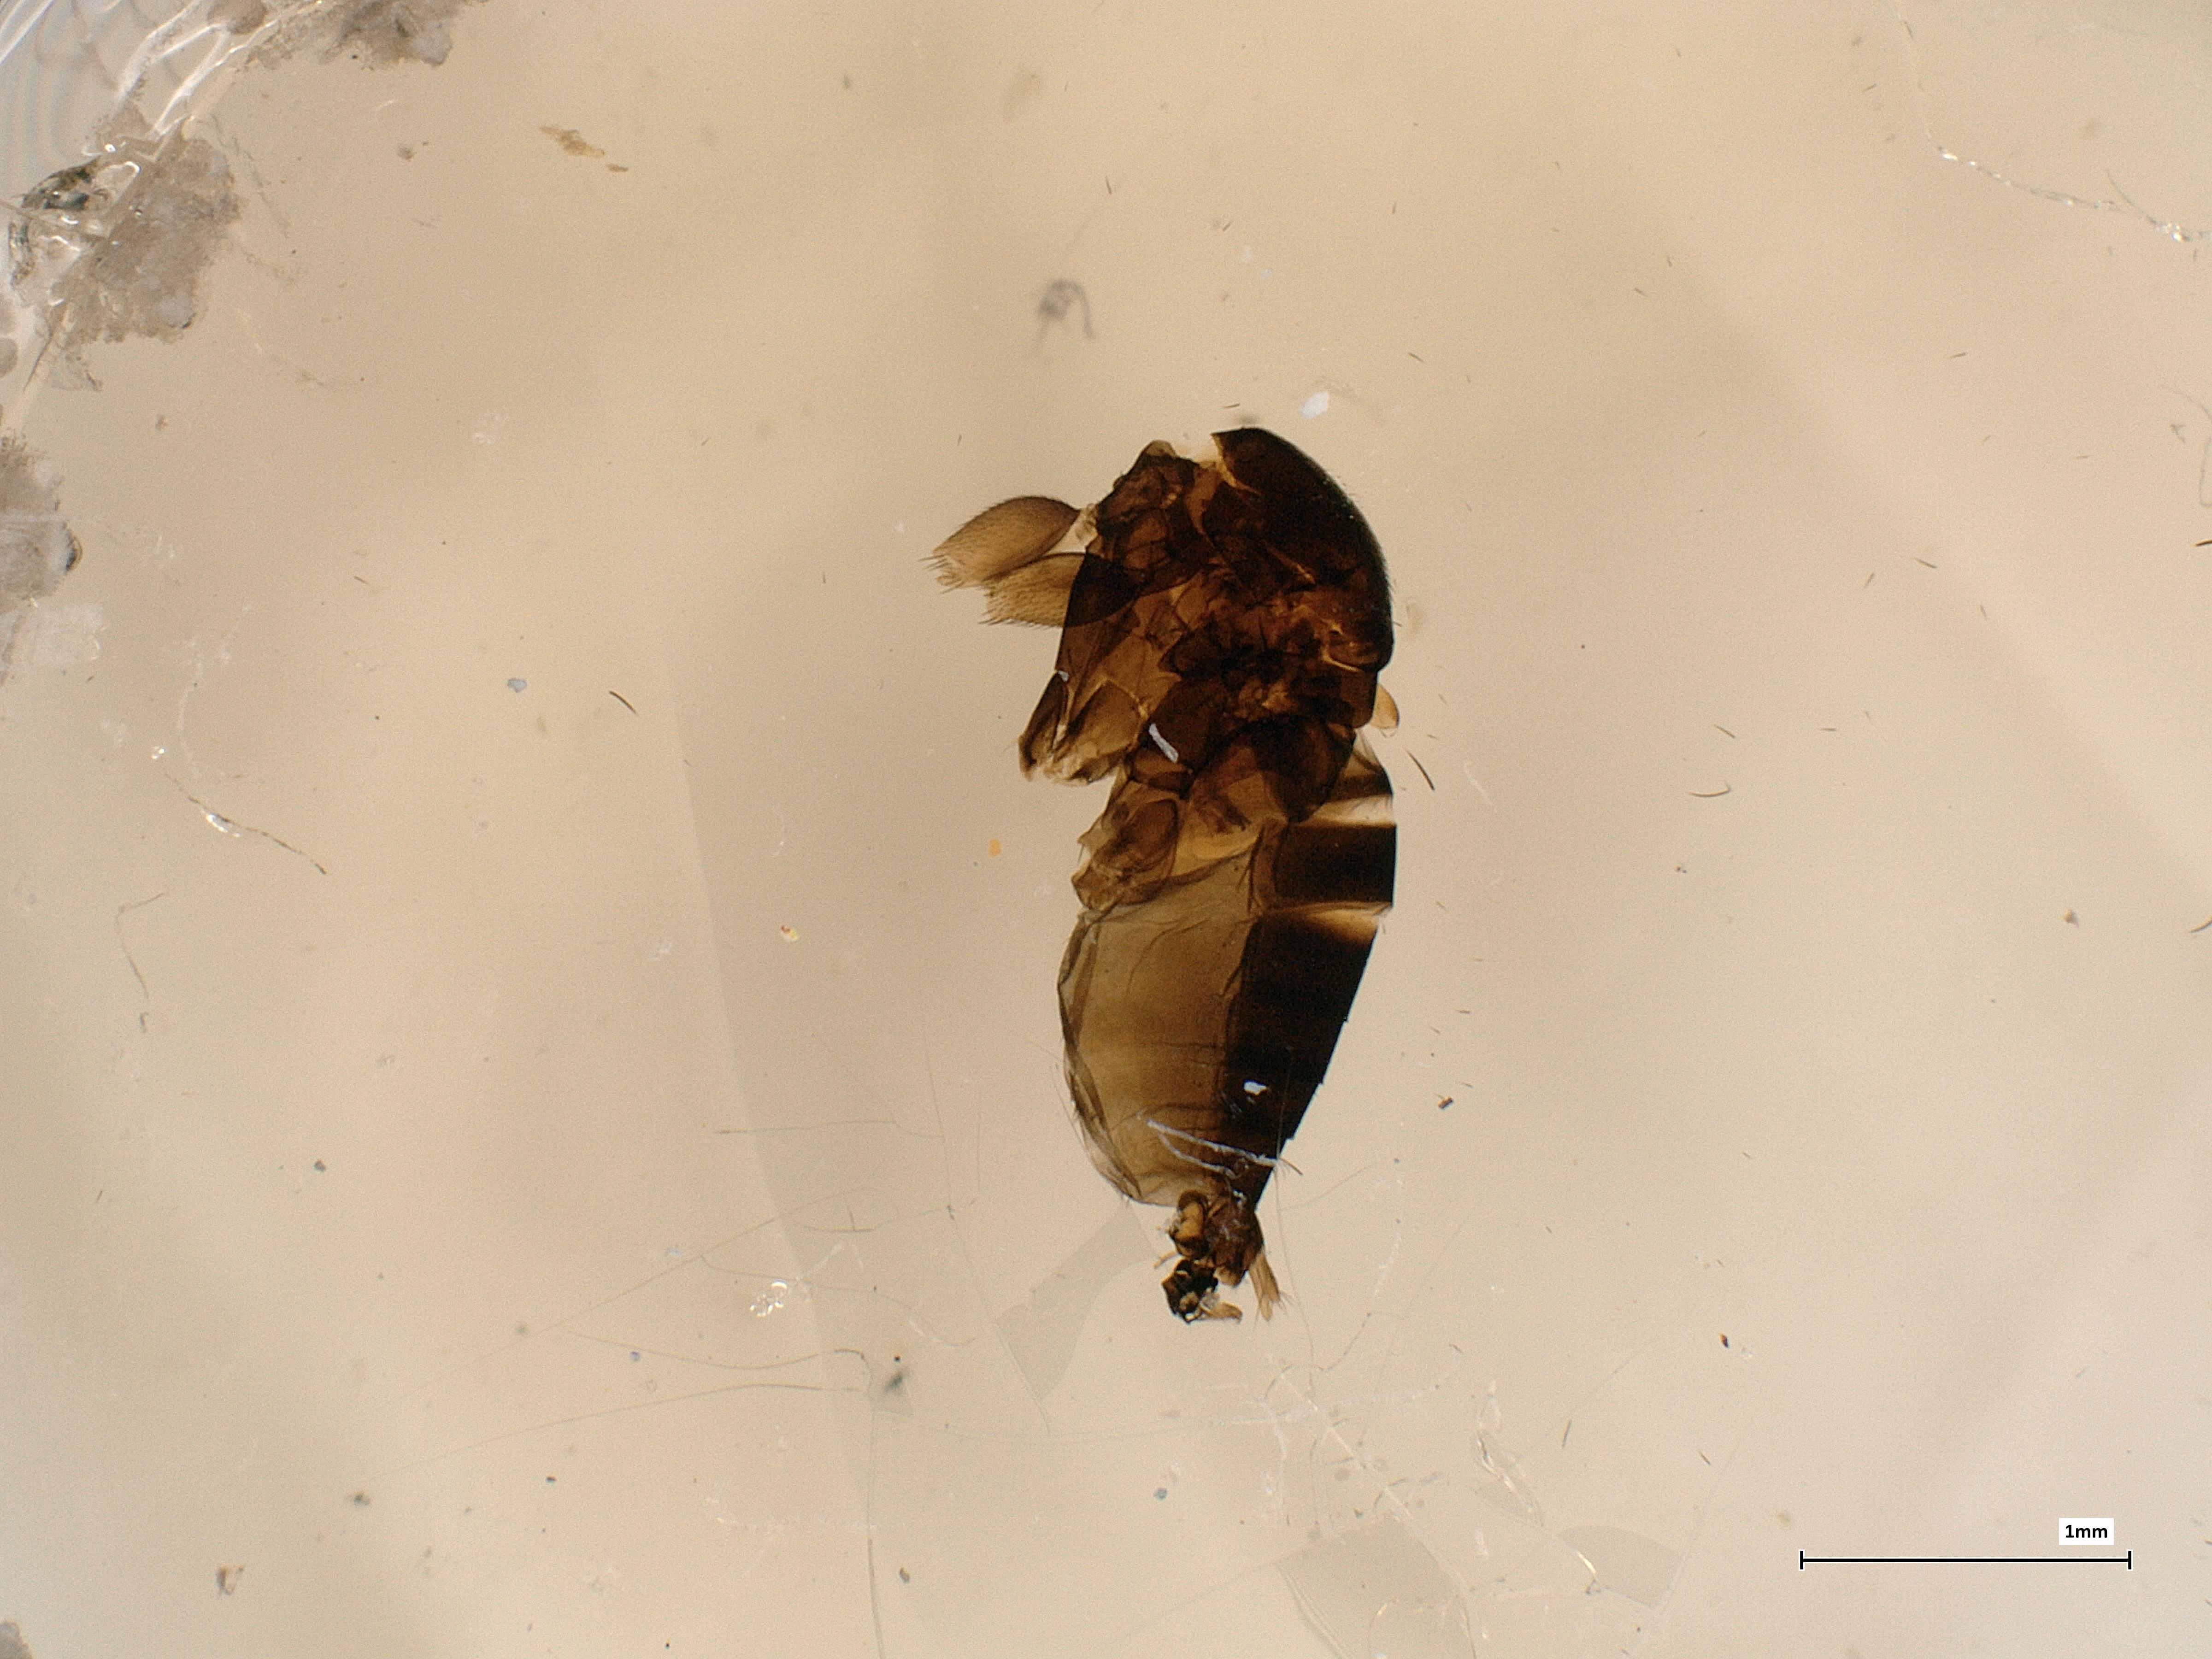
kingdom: Animalia
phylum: Arthropoda
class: Insecta
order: Diptera
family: Phoridae
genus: Megaselia
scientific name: Megaselia pleuralis
